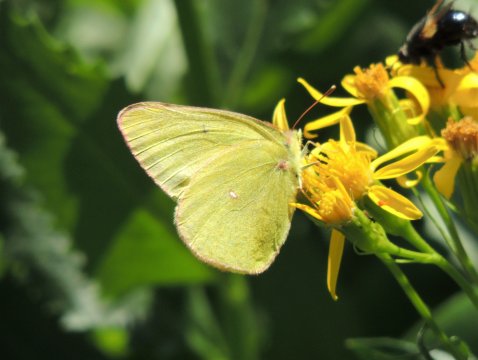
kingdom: Animalia
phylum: Arthropoda
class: Insecta
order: Lepidoptera
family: Pieridae
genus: Colias
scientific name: Colias christina
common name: Christina Sulphur
